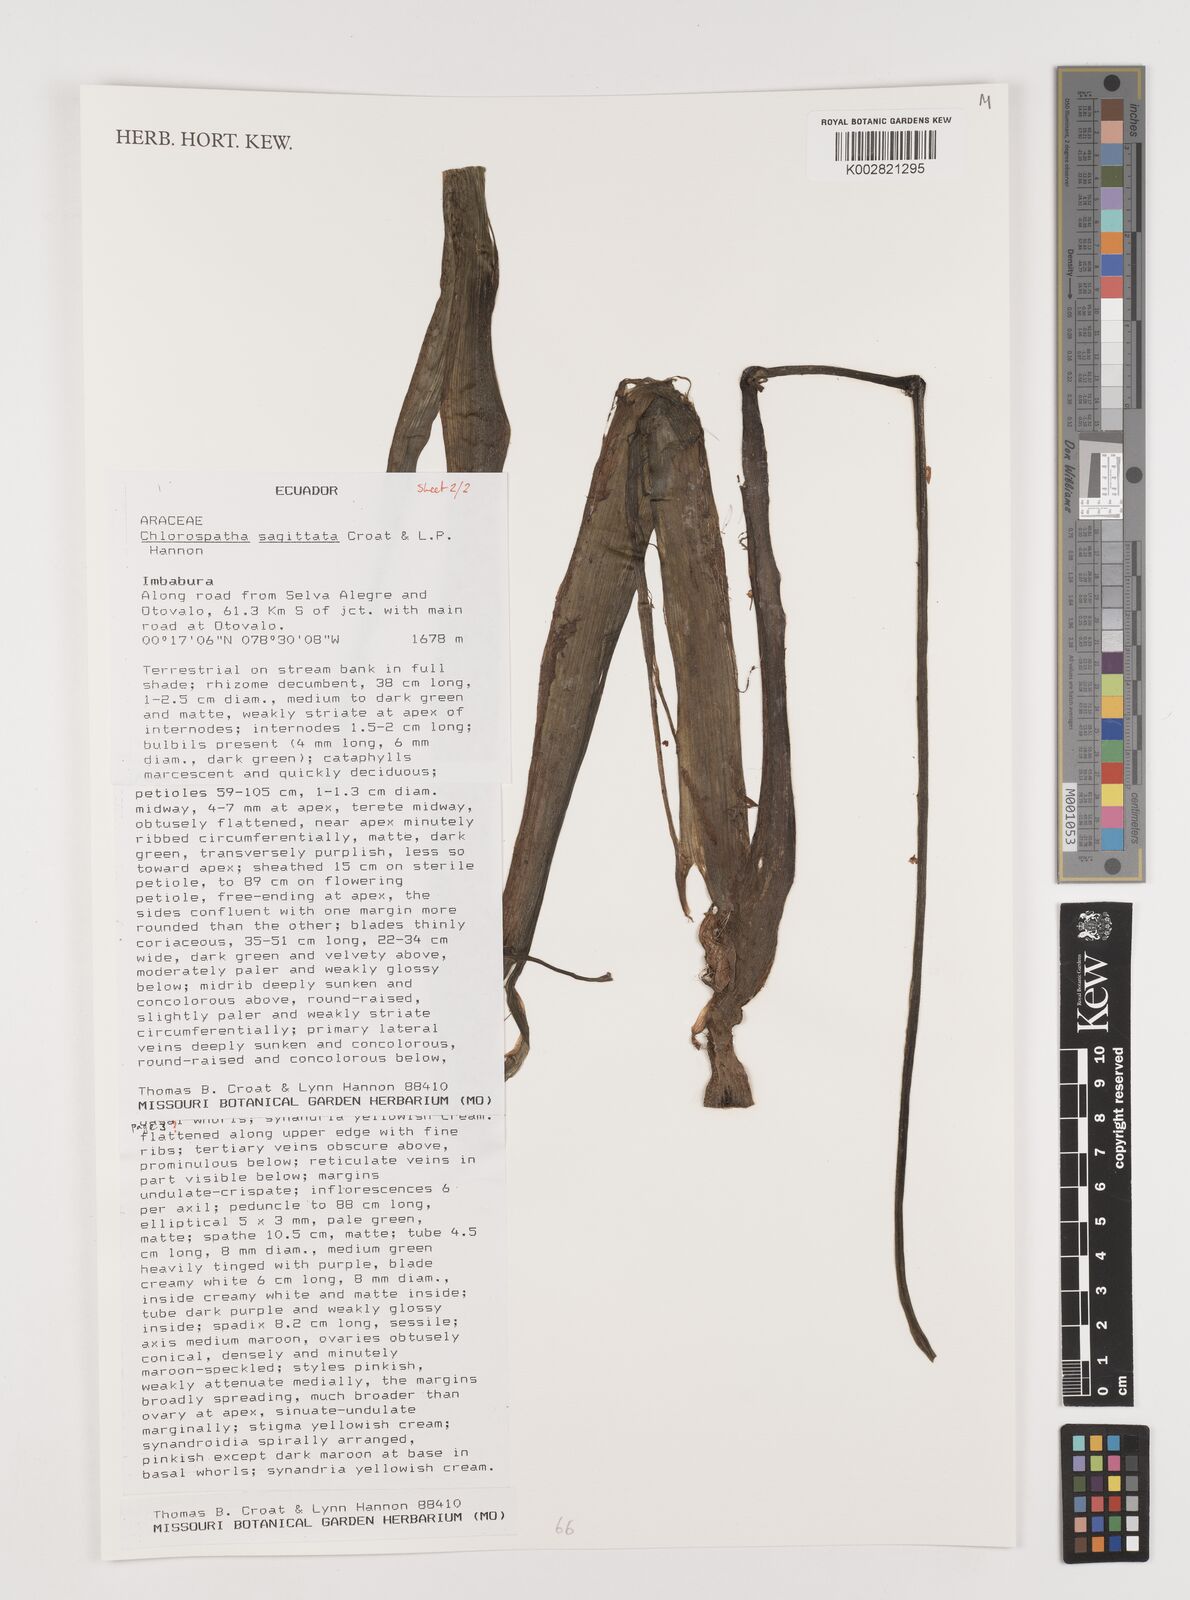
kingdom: Plantae
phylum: Tracheophyta
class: Liliopsida
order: Alismatales
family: Araceae
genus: Chlorospatha
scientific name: Chlorospatha sagittata
